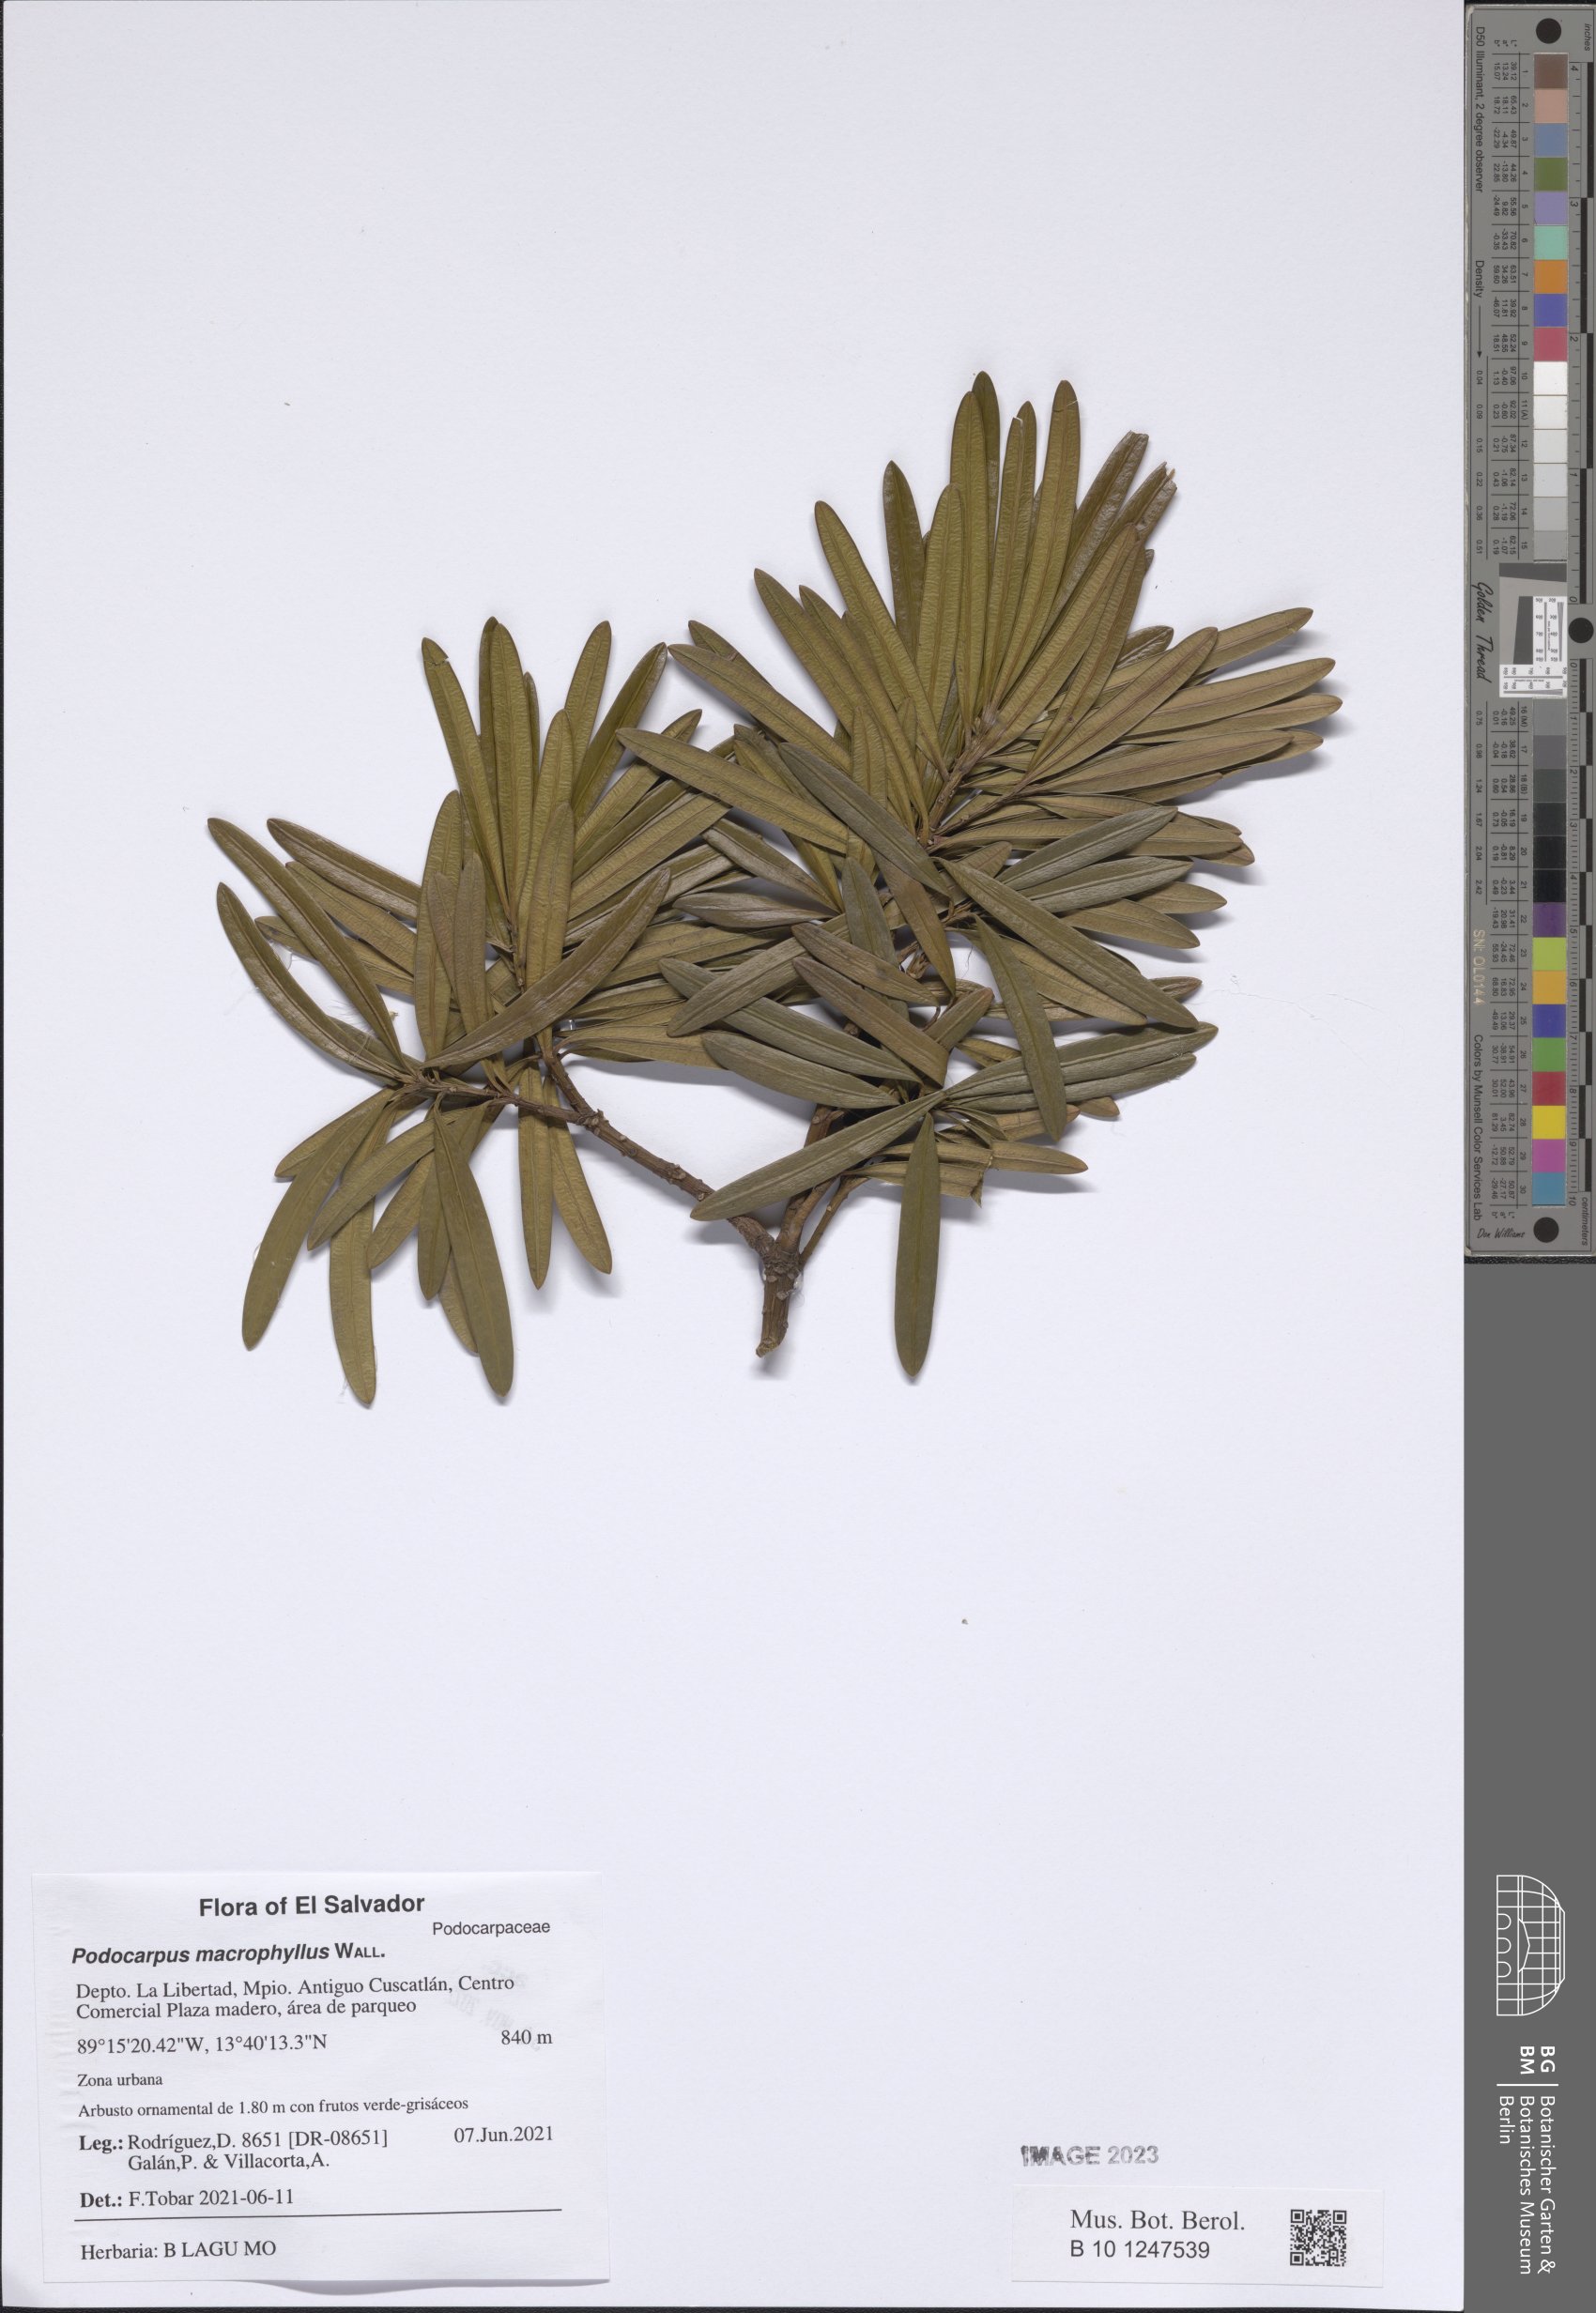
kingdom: Plantae
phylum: Tracheophyta
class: Pinopsida
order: Pinales
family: Podocarpaceae
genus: Podocarpus
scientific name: Podocarpus macrophyllus
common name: Japanese yew
